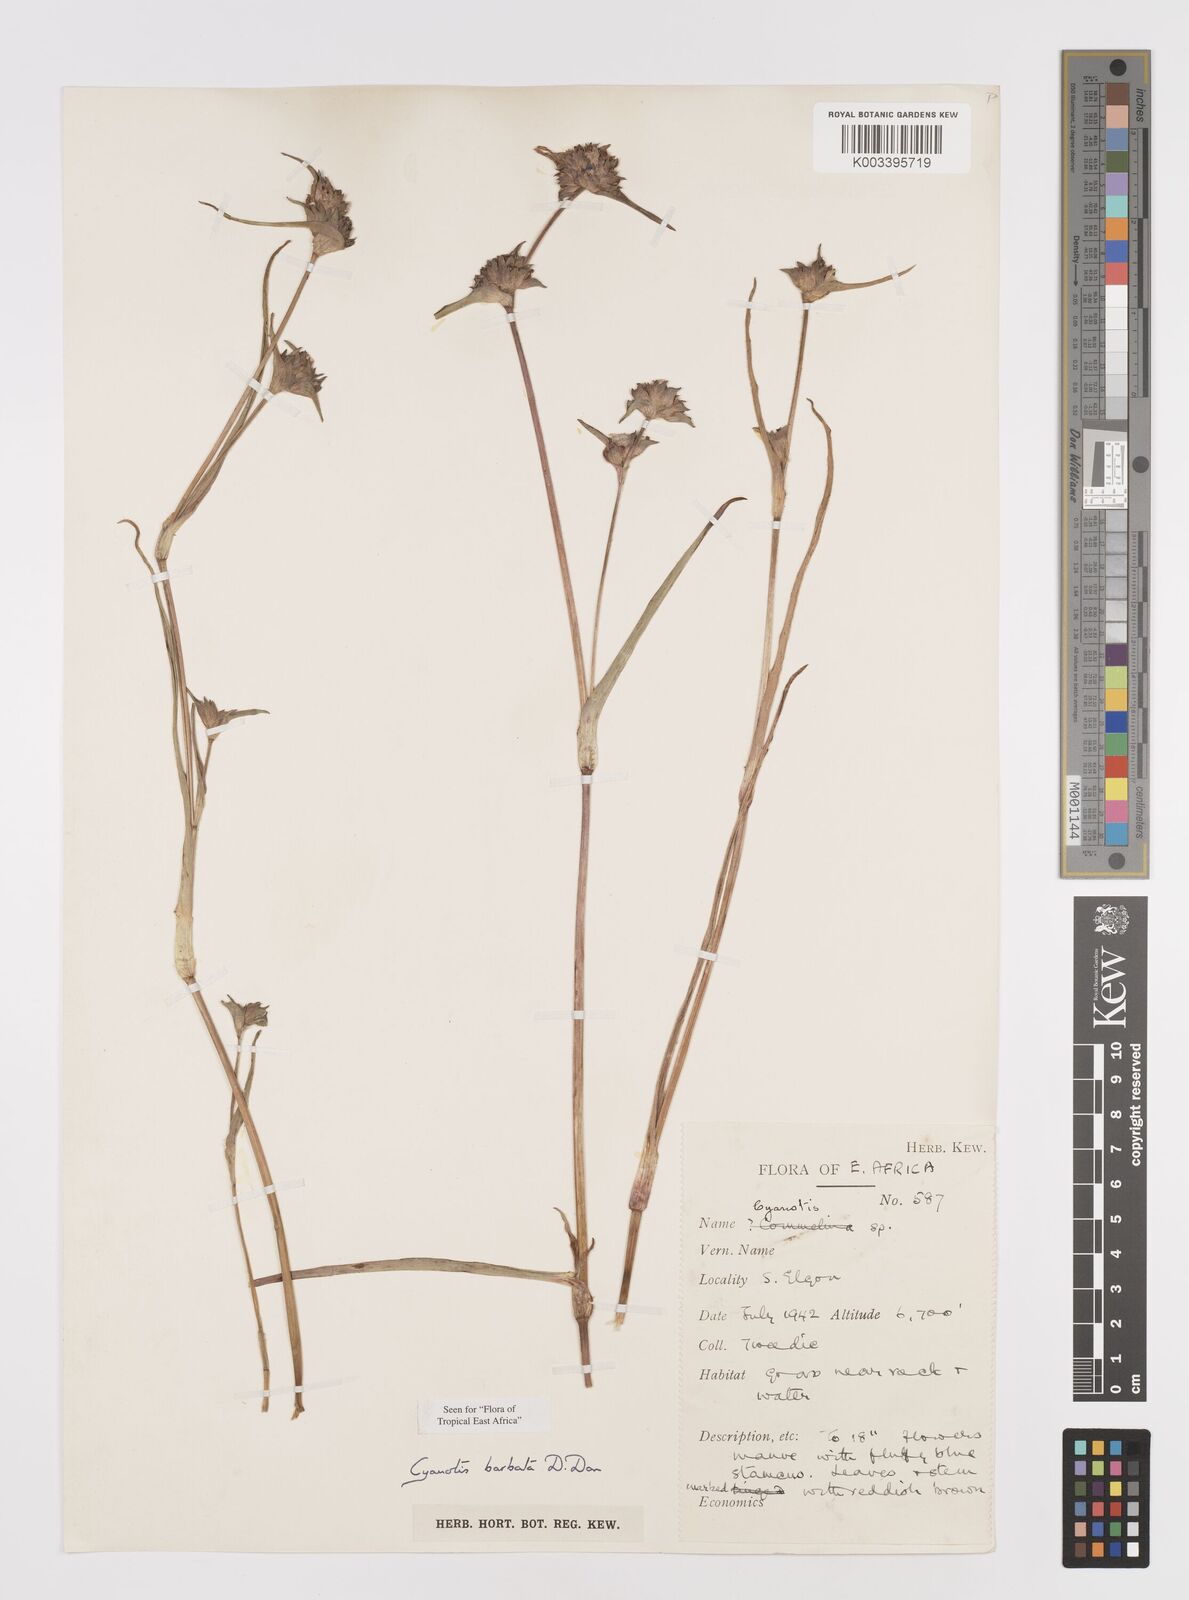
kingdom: Plantae
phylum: Tracheophyta
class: Liliopsida
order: Commelinales
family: Commelinaceae
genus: Cyanotis
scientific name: Cyanotis vaga
